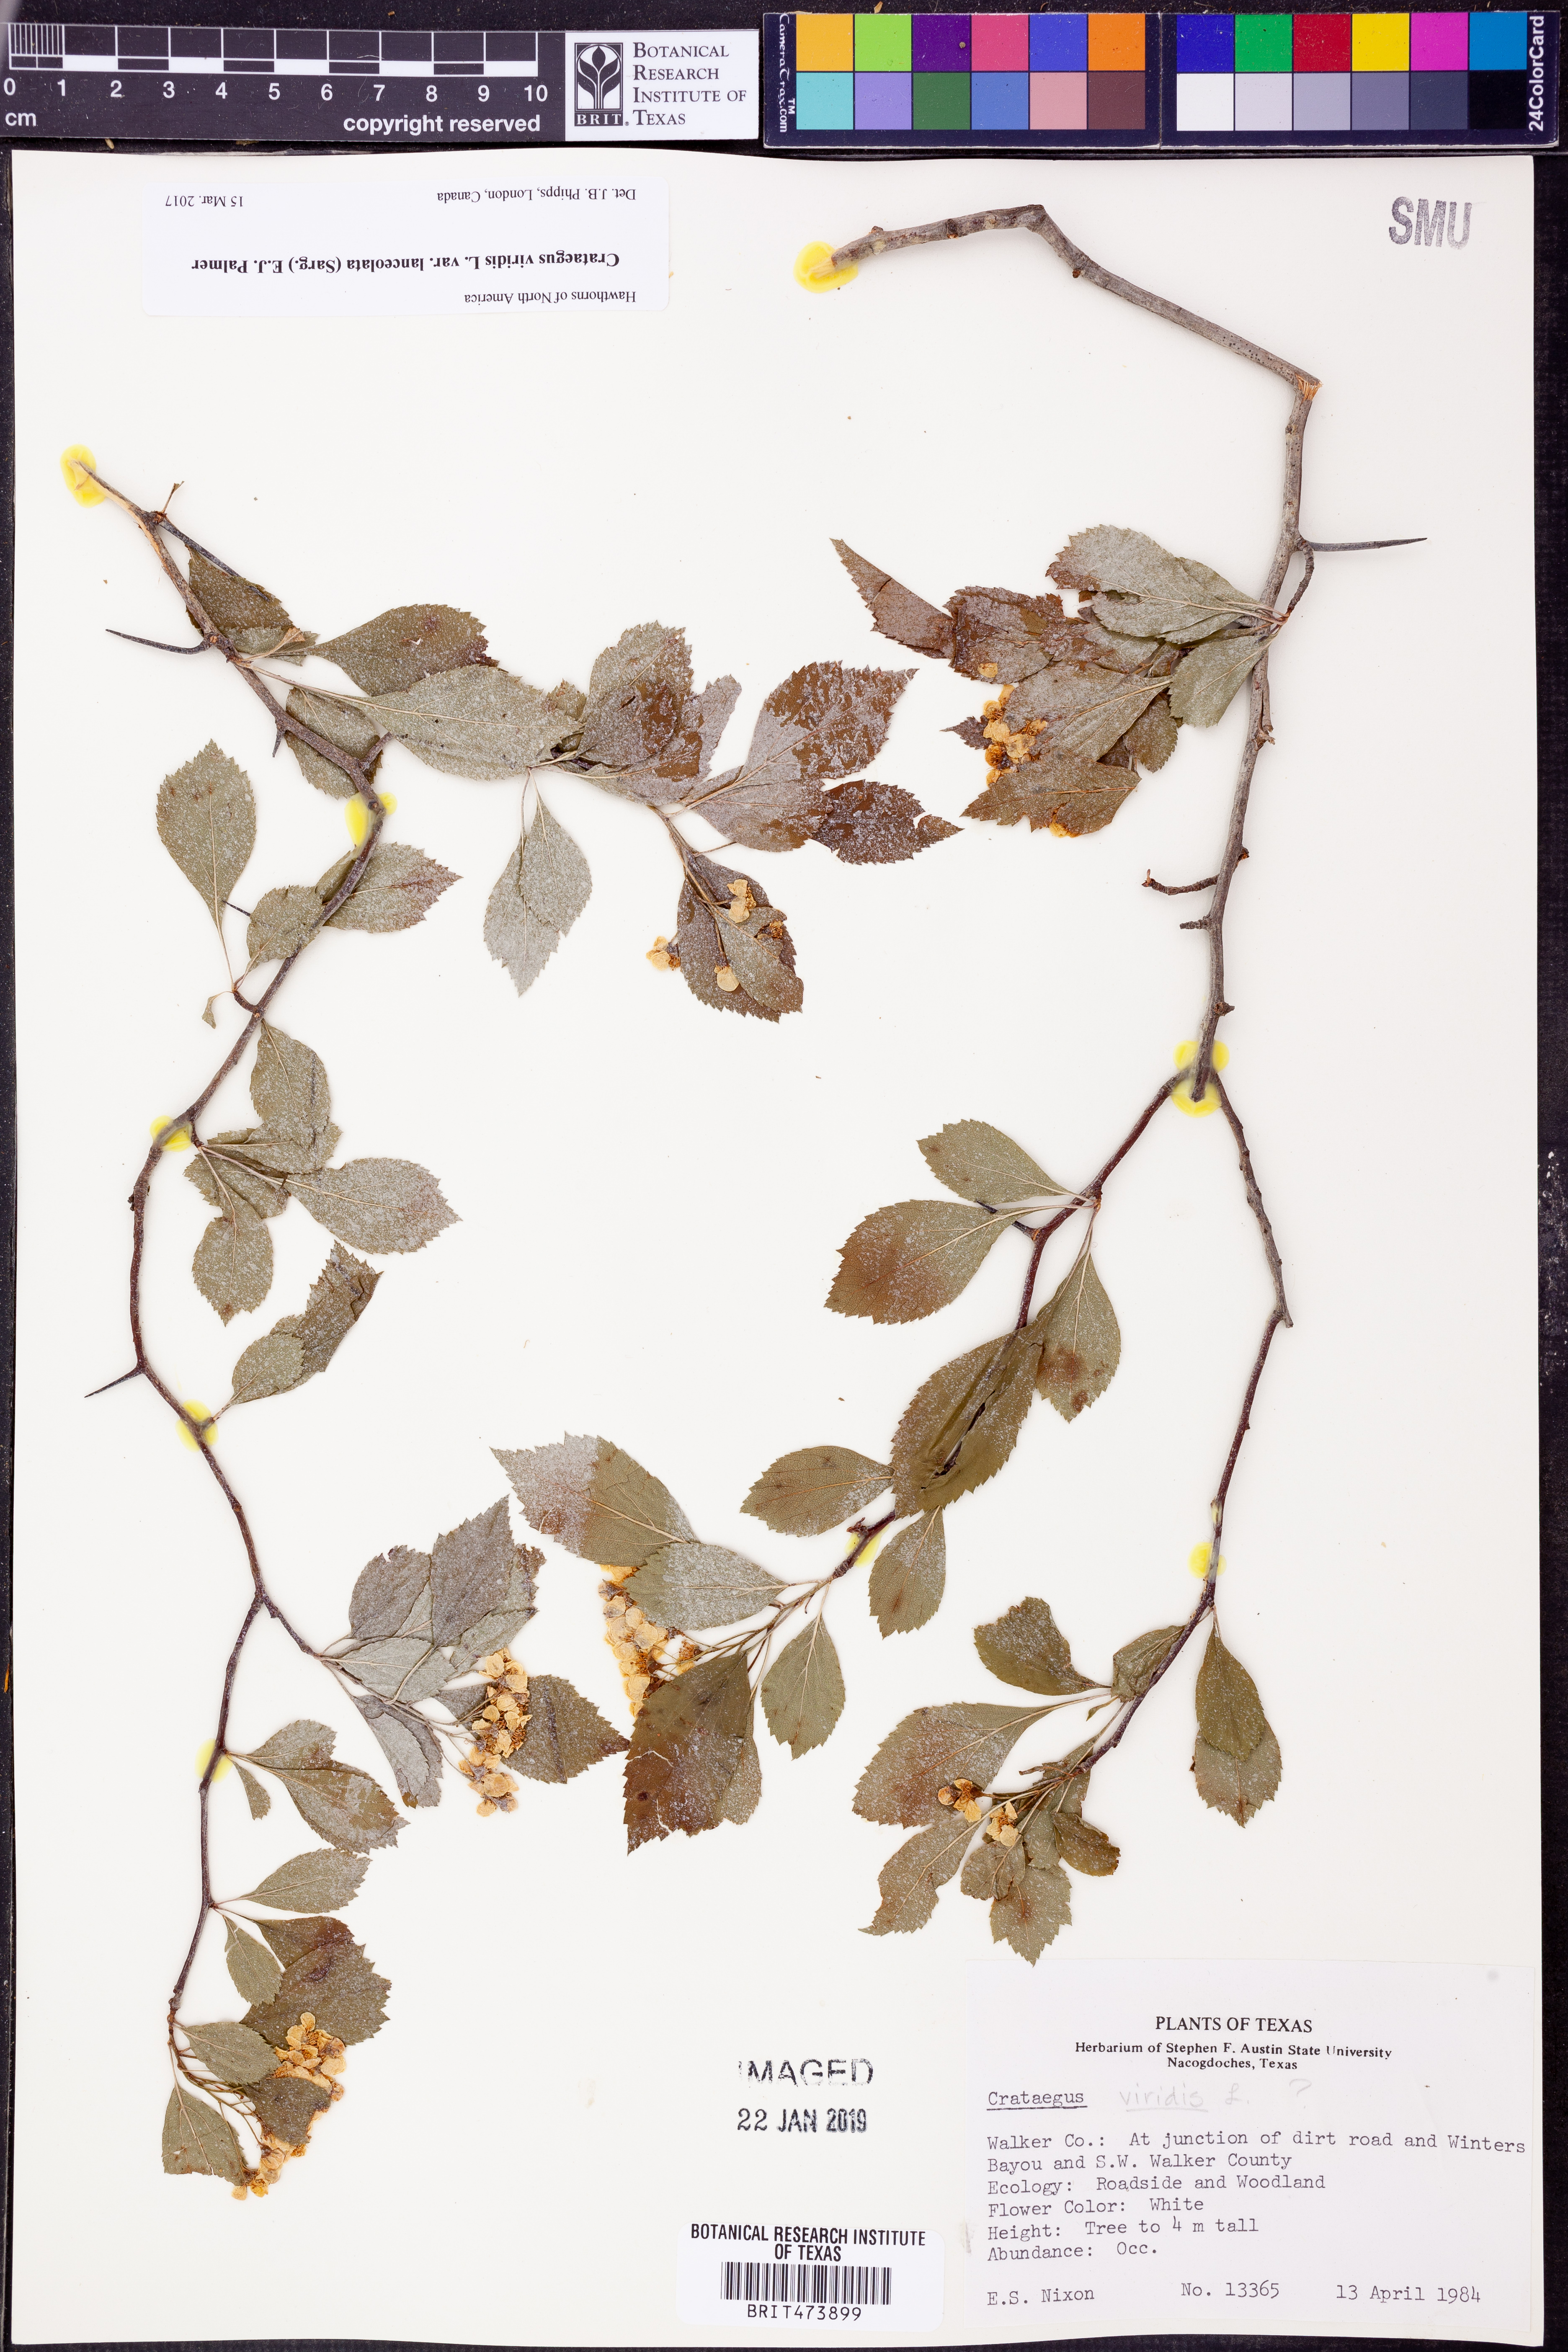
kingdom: Plantae
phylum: Tracheophyta
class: Magnoliopsida
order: Rosales
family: Rosaceae
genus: Crataegus
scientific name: Crataegus viridis
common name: Southernthorn
